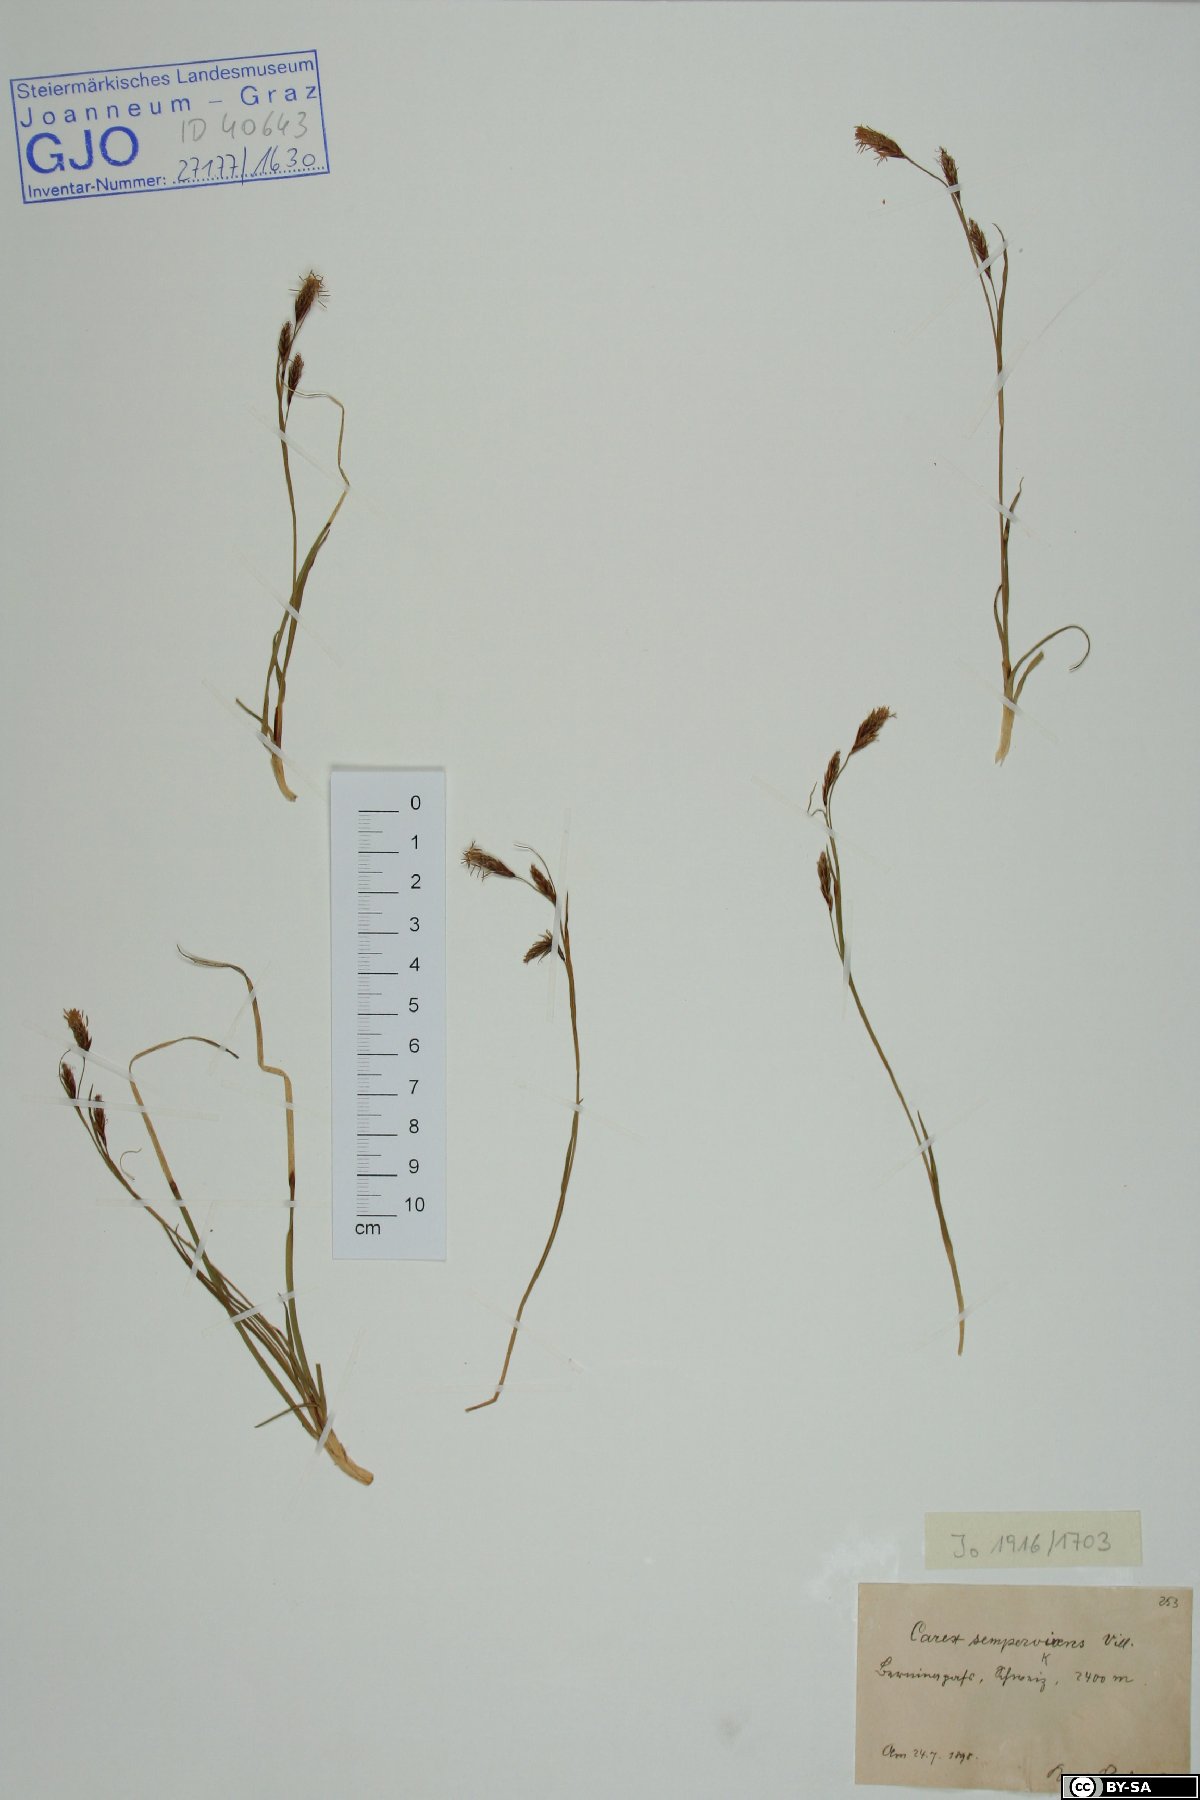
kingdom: Plantae
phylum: Tracheophyta
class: Liliopsida
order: Poales
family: Cyperaceae
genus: Carex
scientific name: Carex sempervirens
